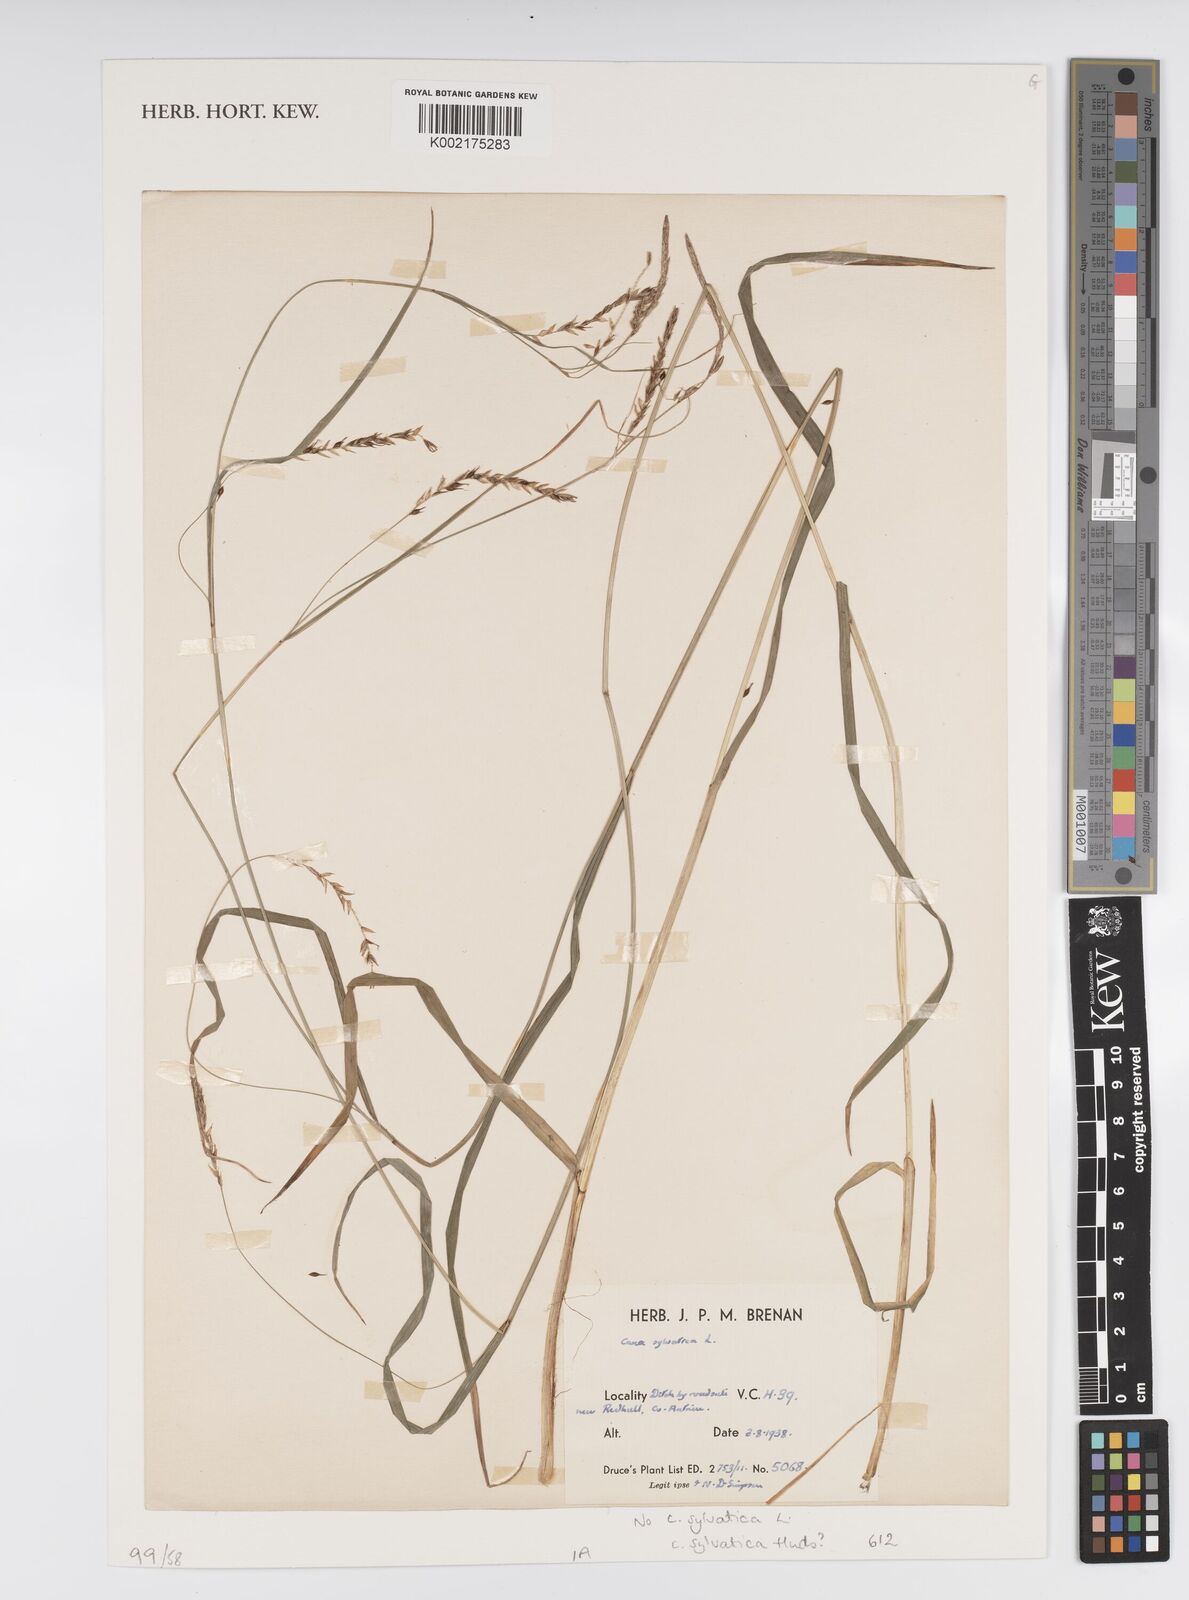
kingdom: Plantae
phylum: Tracheophyta
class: Liliopsida
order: Poales
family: Cyperaceae
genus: Carex
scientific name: Carex sylvatica
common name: Wood-sedge
